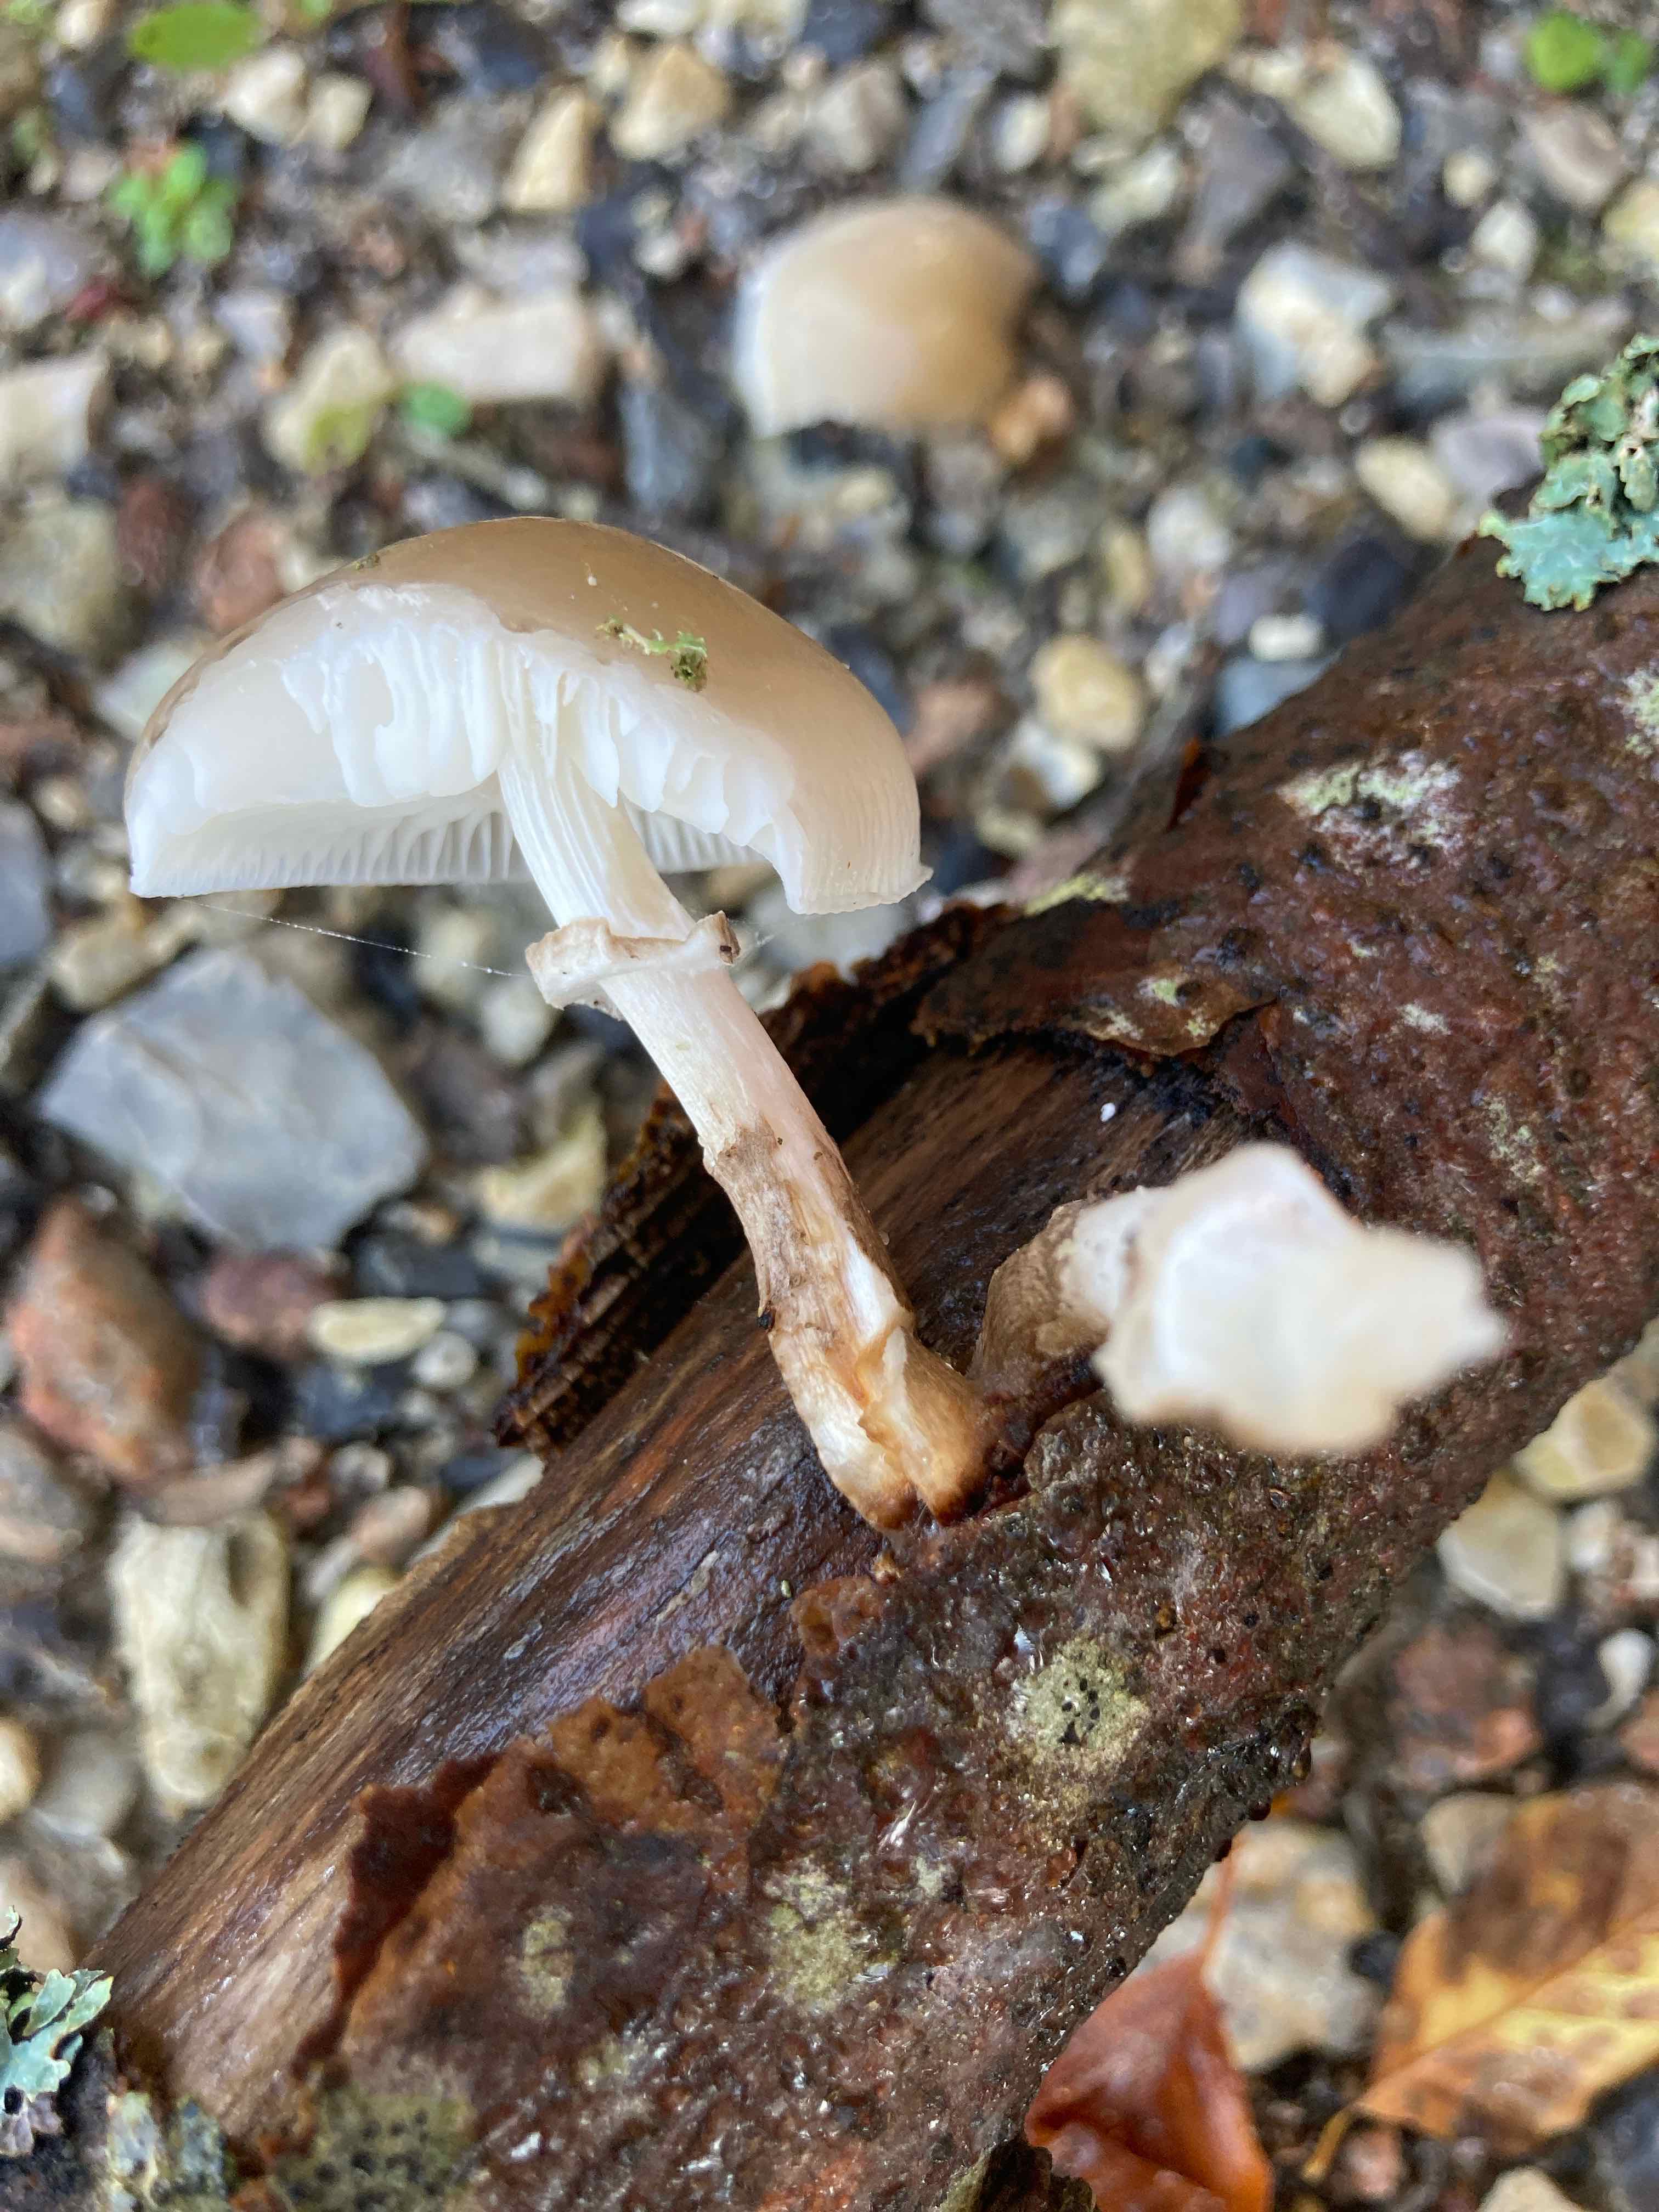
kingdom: Fungi
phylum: Basidiomycota
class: Agaricomycetes
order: Agaricales
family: Physalacriaceae
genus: Mucidula
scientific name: Mucidula mucida
